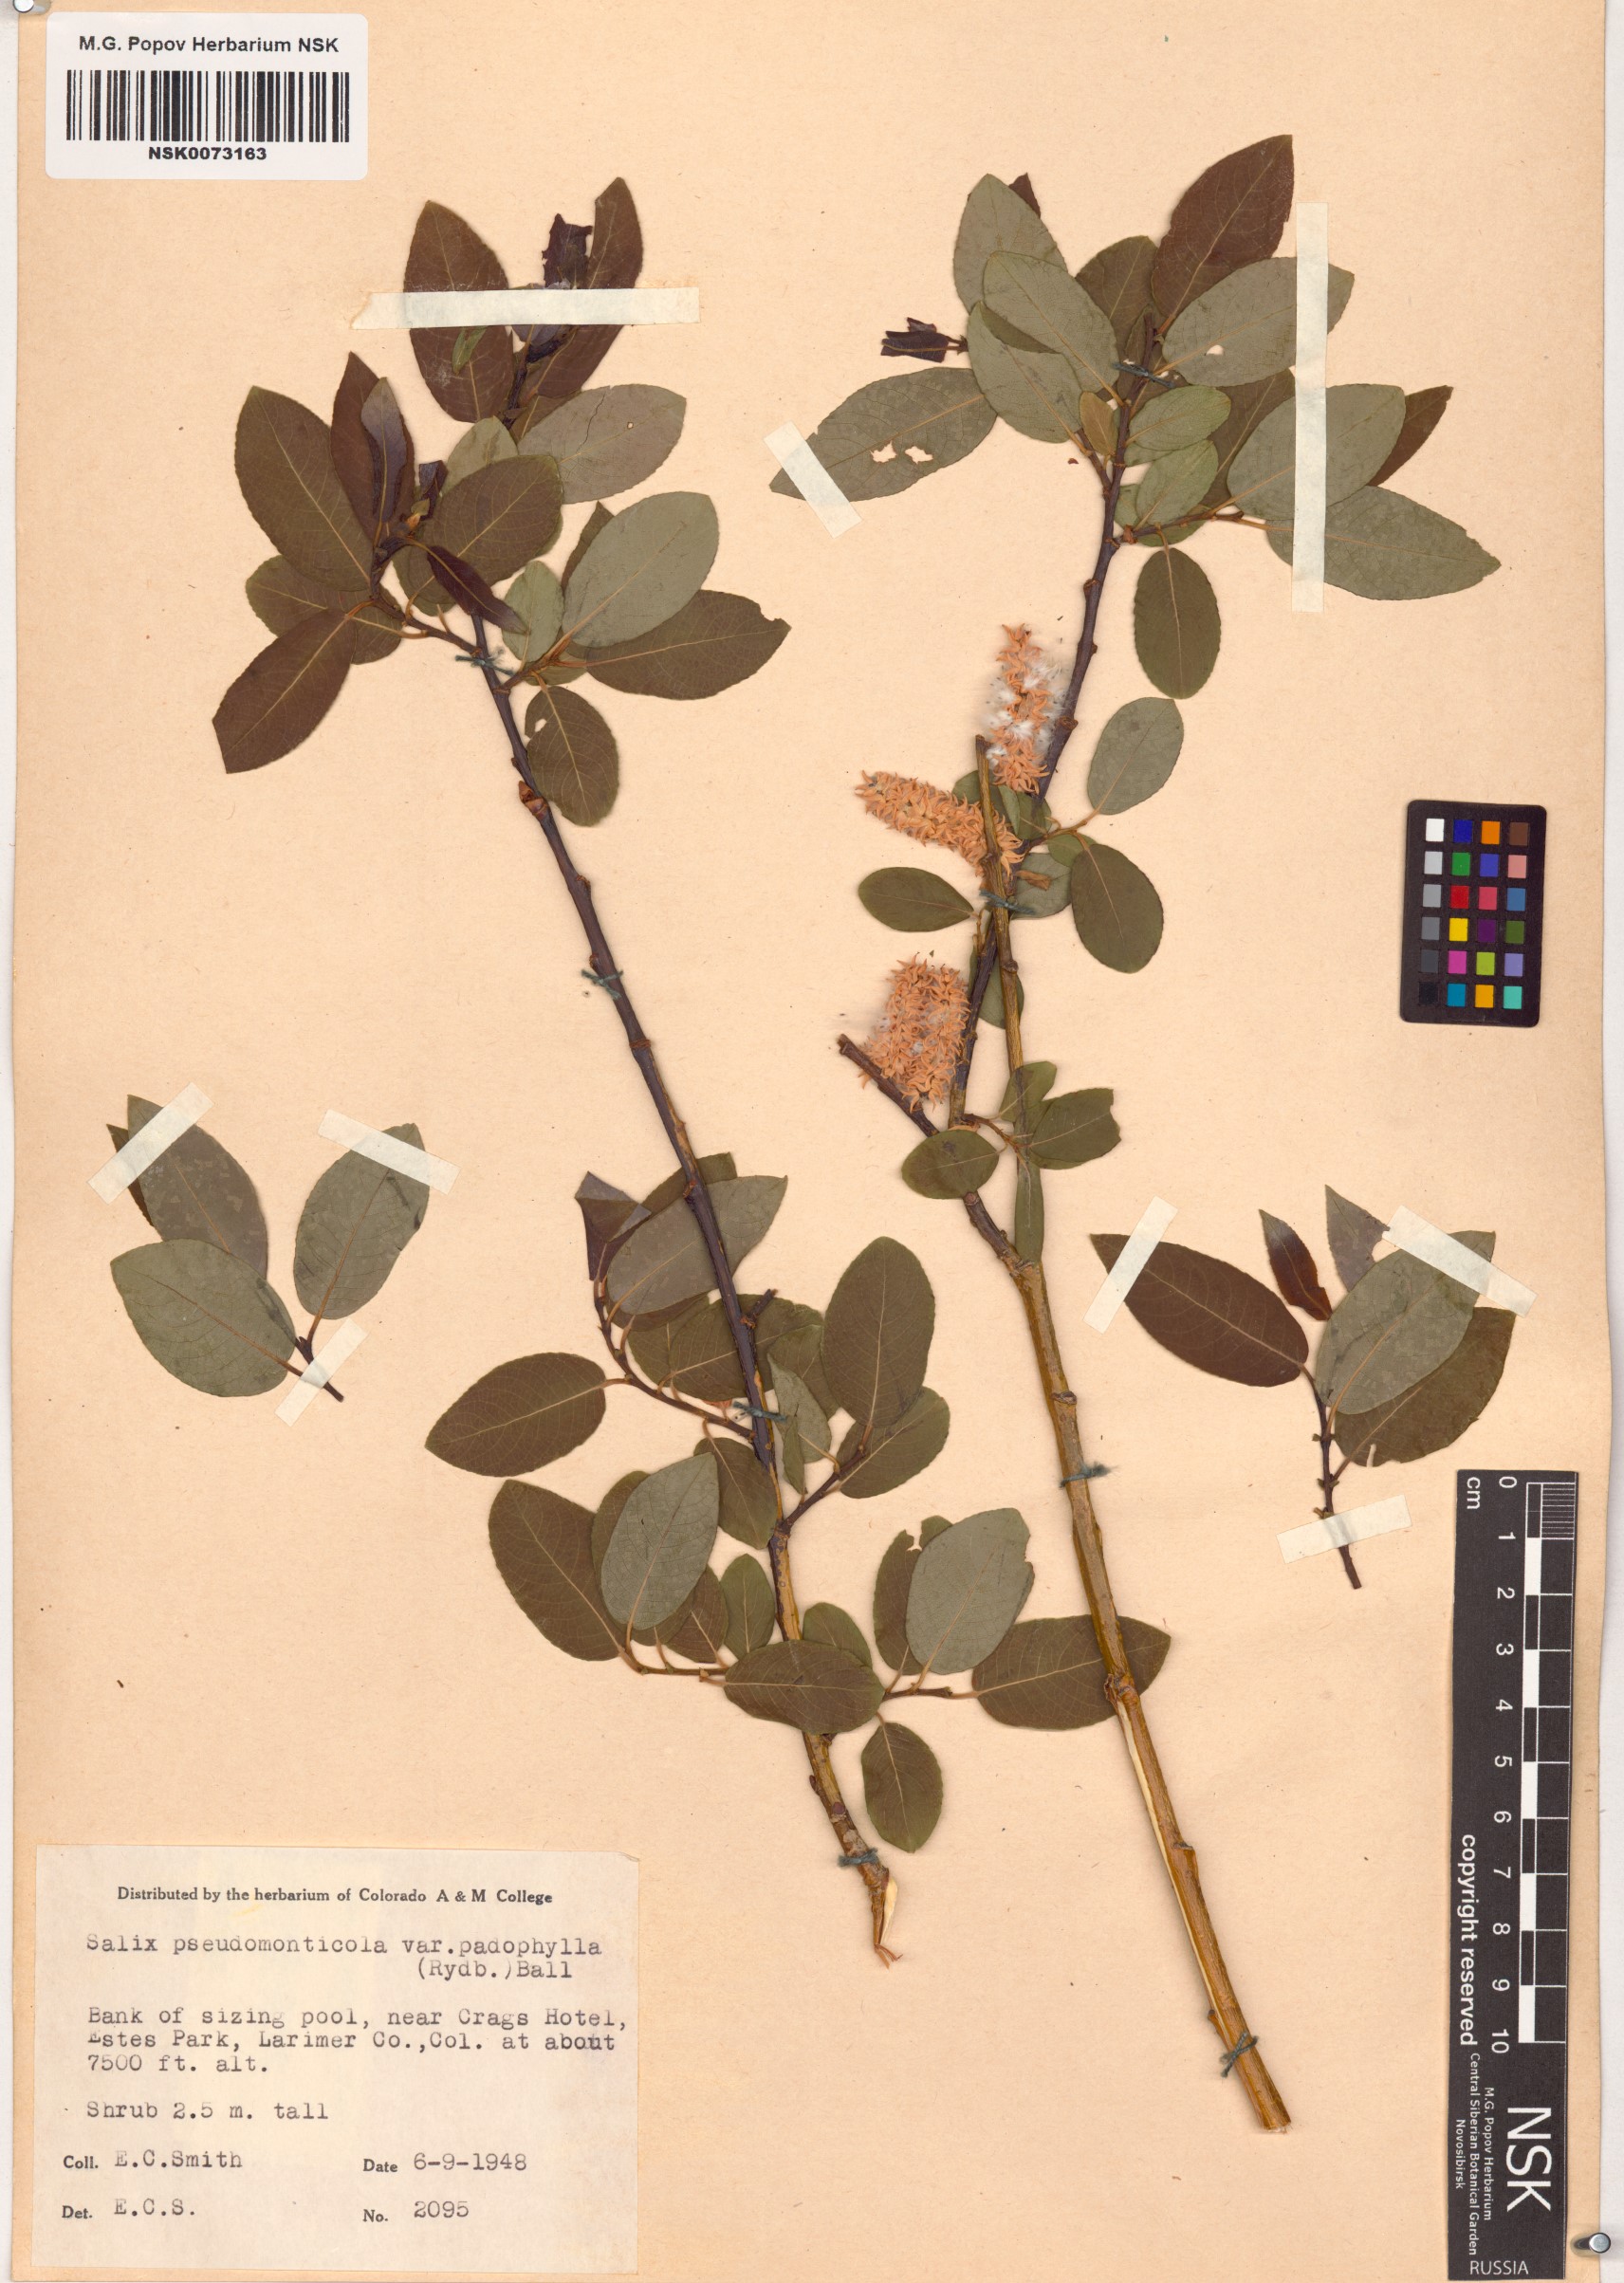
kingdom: Plantae
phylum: Tracheophyta
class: Magnoliopsida
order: Malpighiales
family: Salicaceae
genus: Salix
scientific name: Salix monticola
